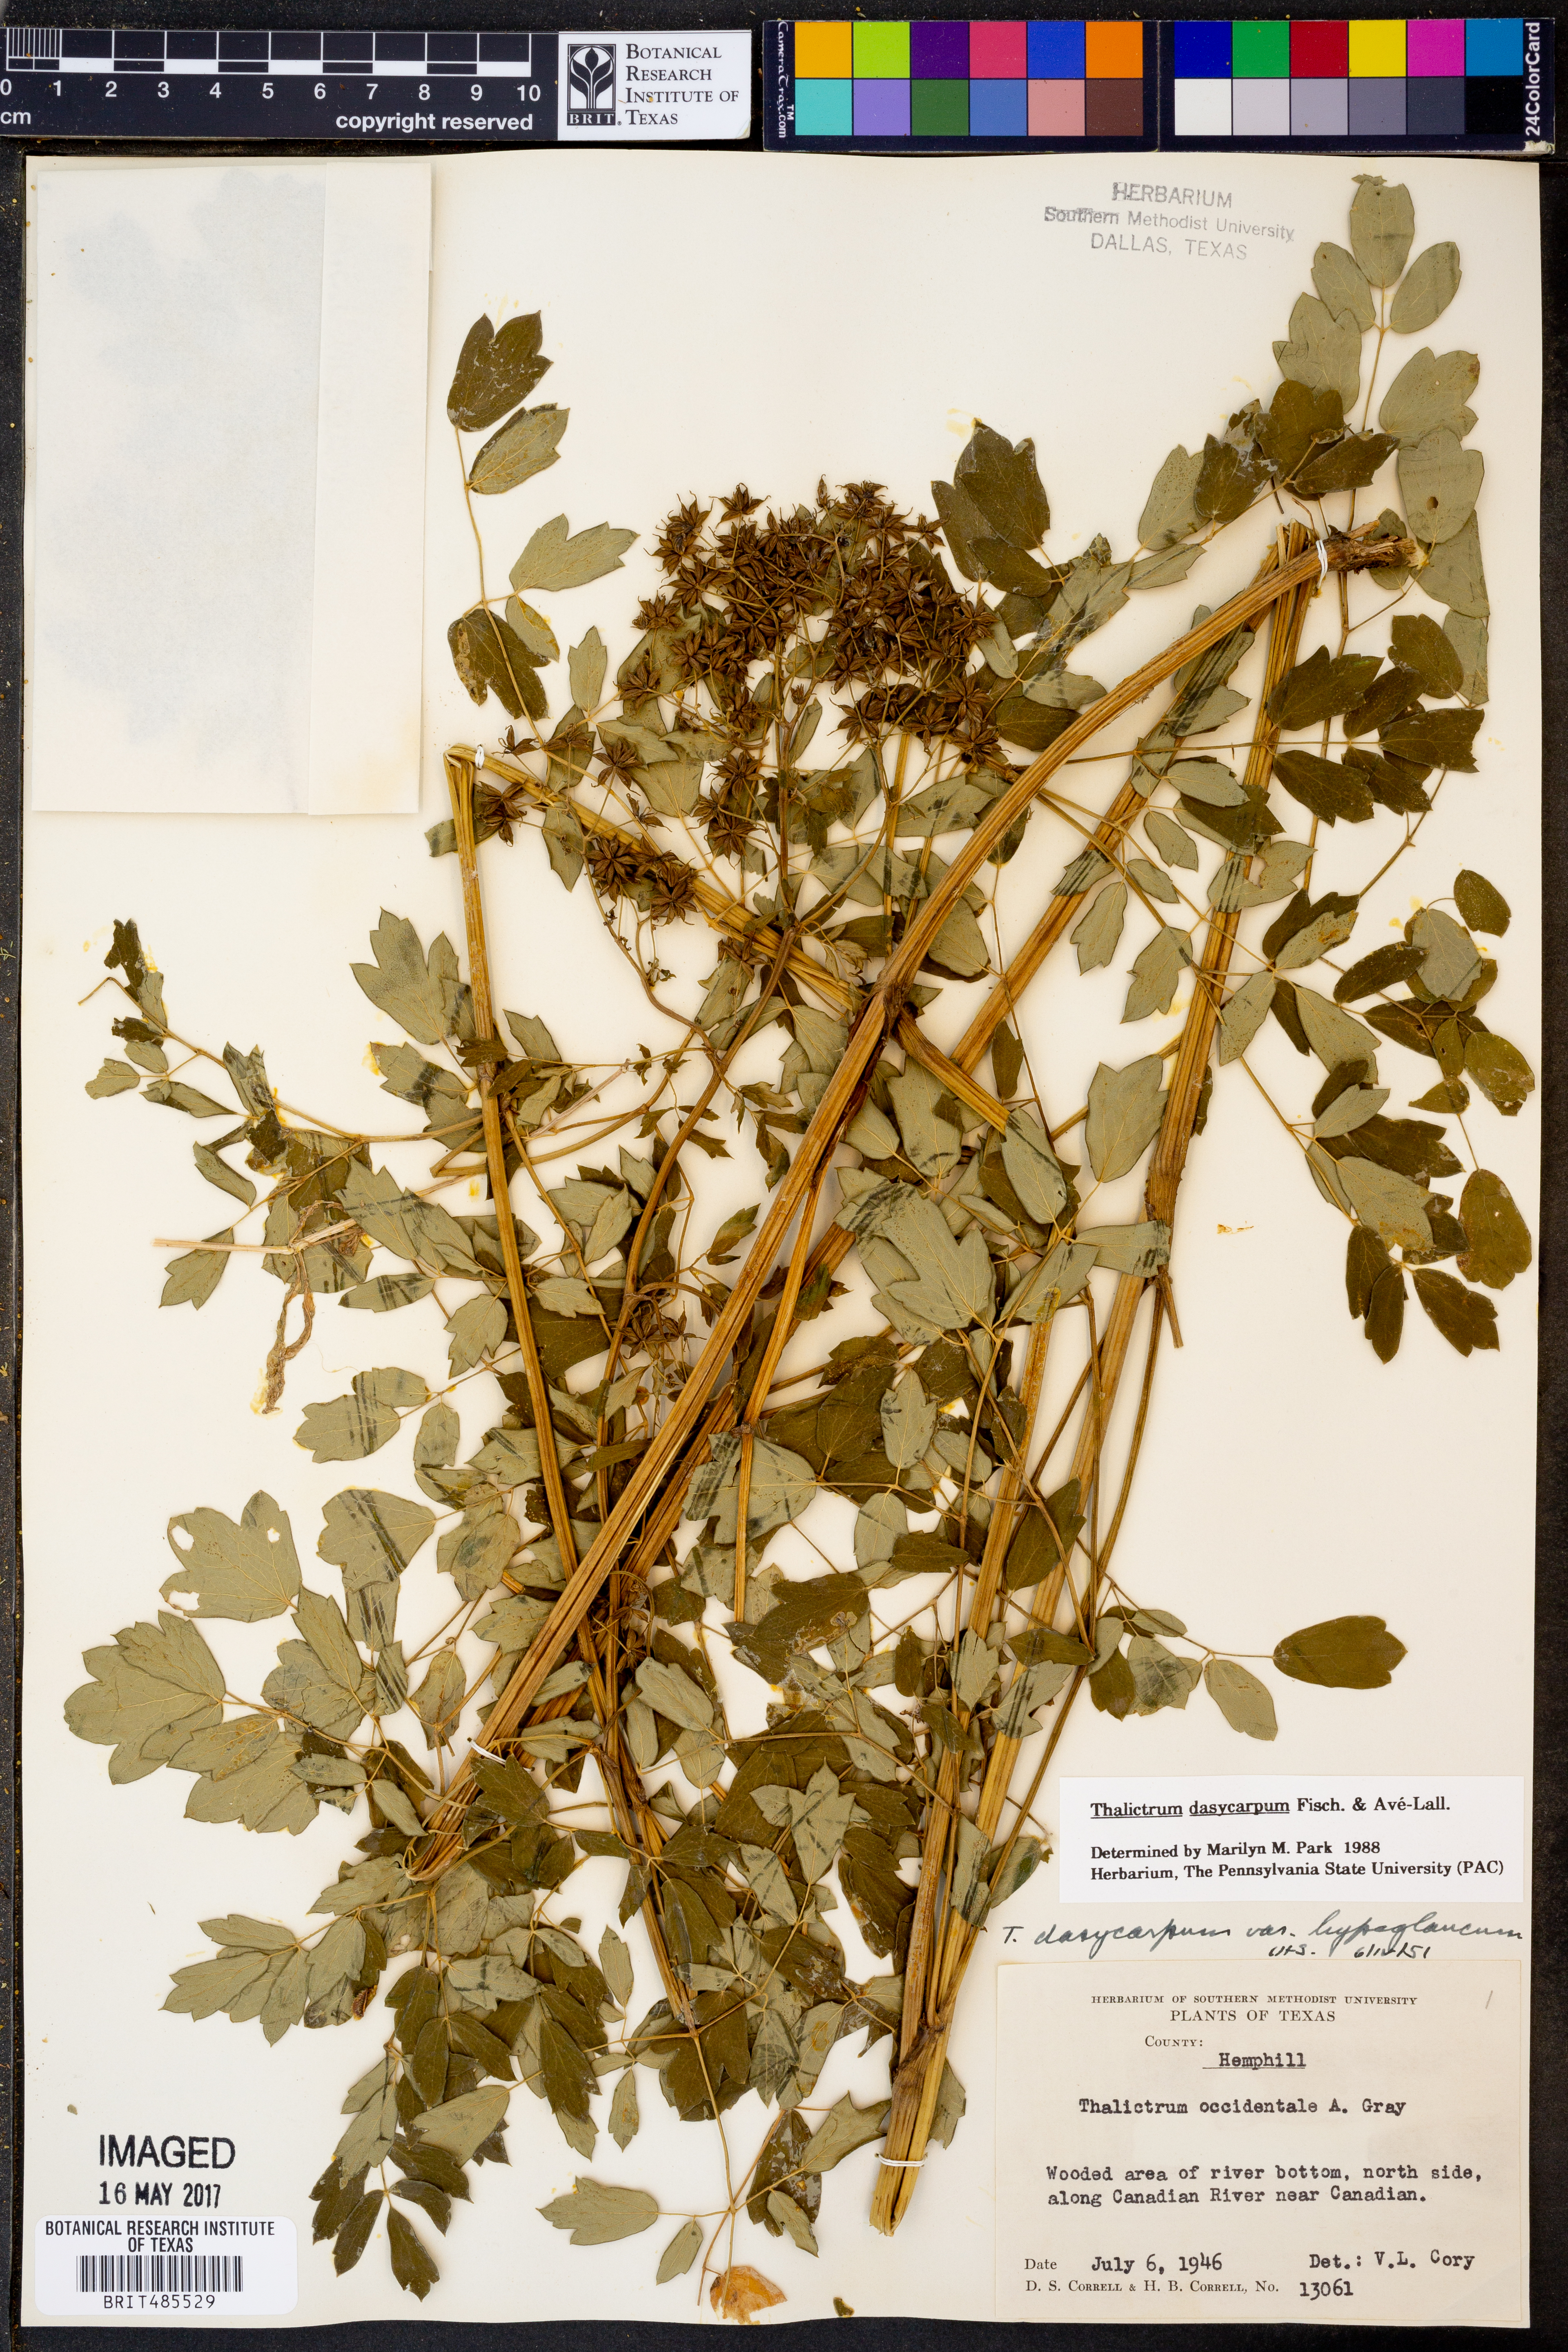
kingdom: Plantae
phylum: Tracheophyta
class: Magnoliopsida
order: Ranunculales
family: Ranunculaceae
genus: Thalictrum
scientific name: Thalictrum dasycarpum
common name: Purple meadow-rue
